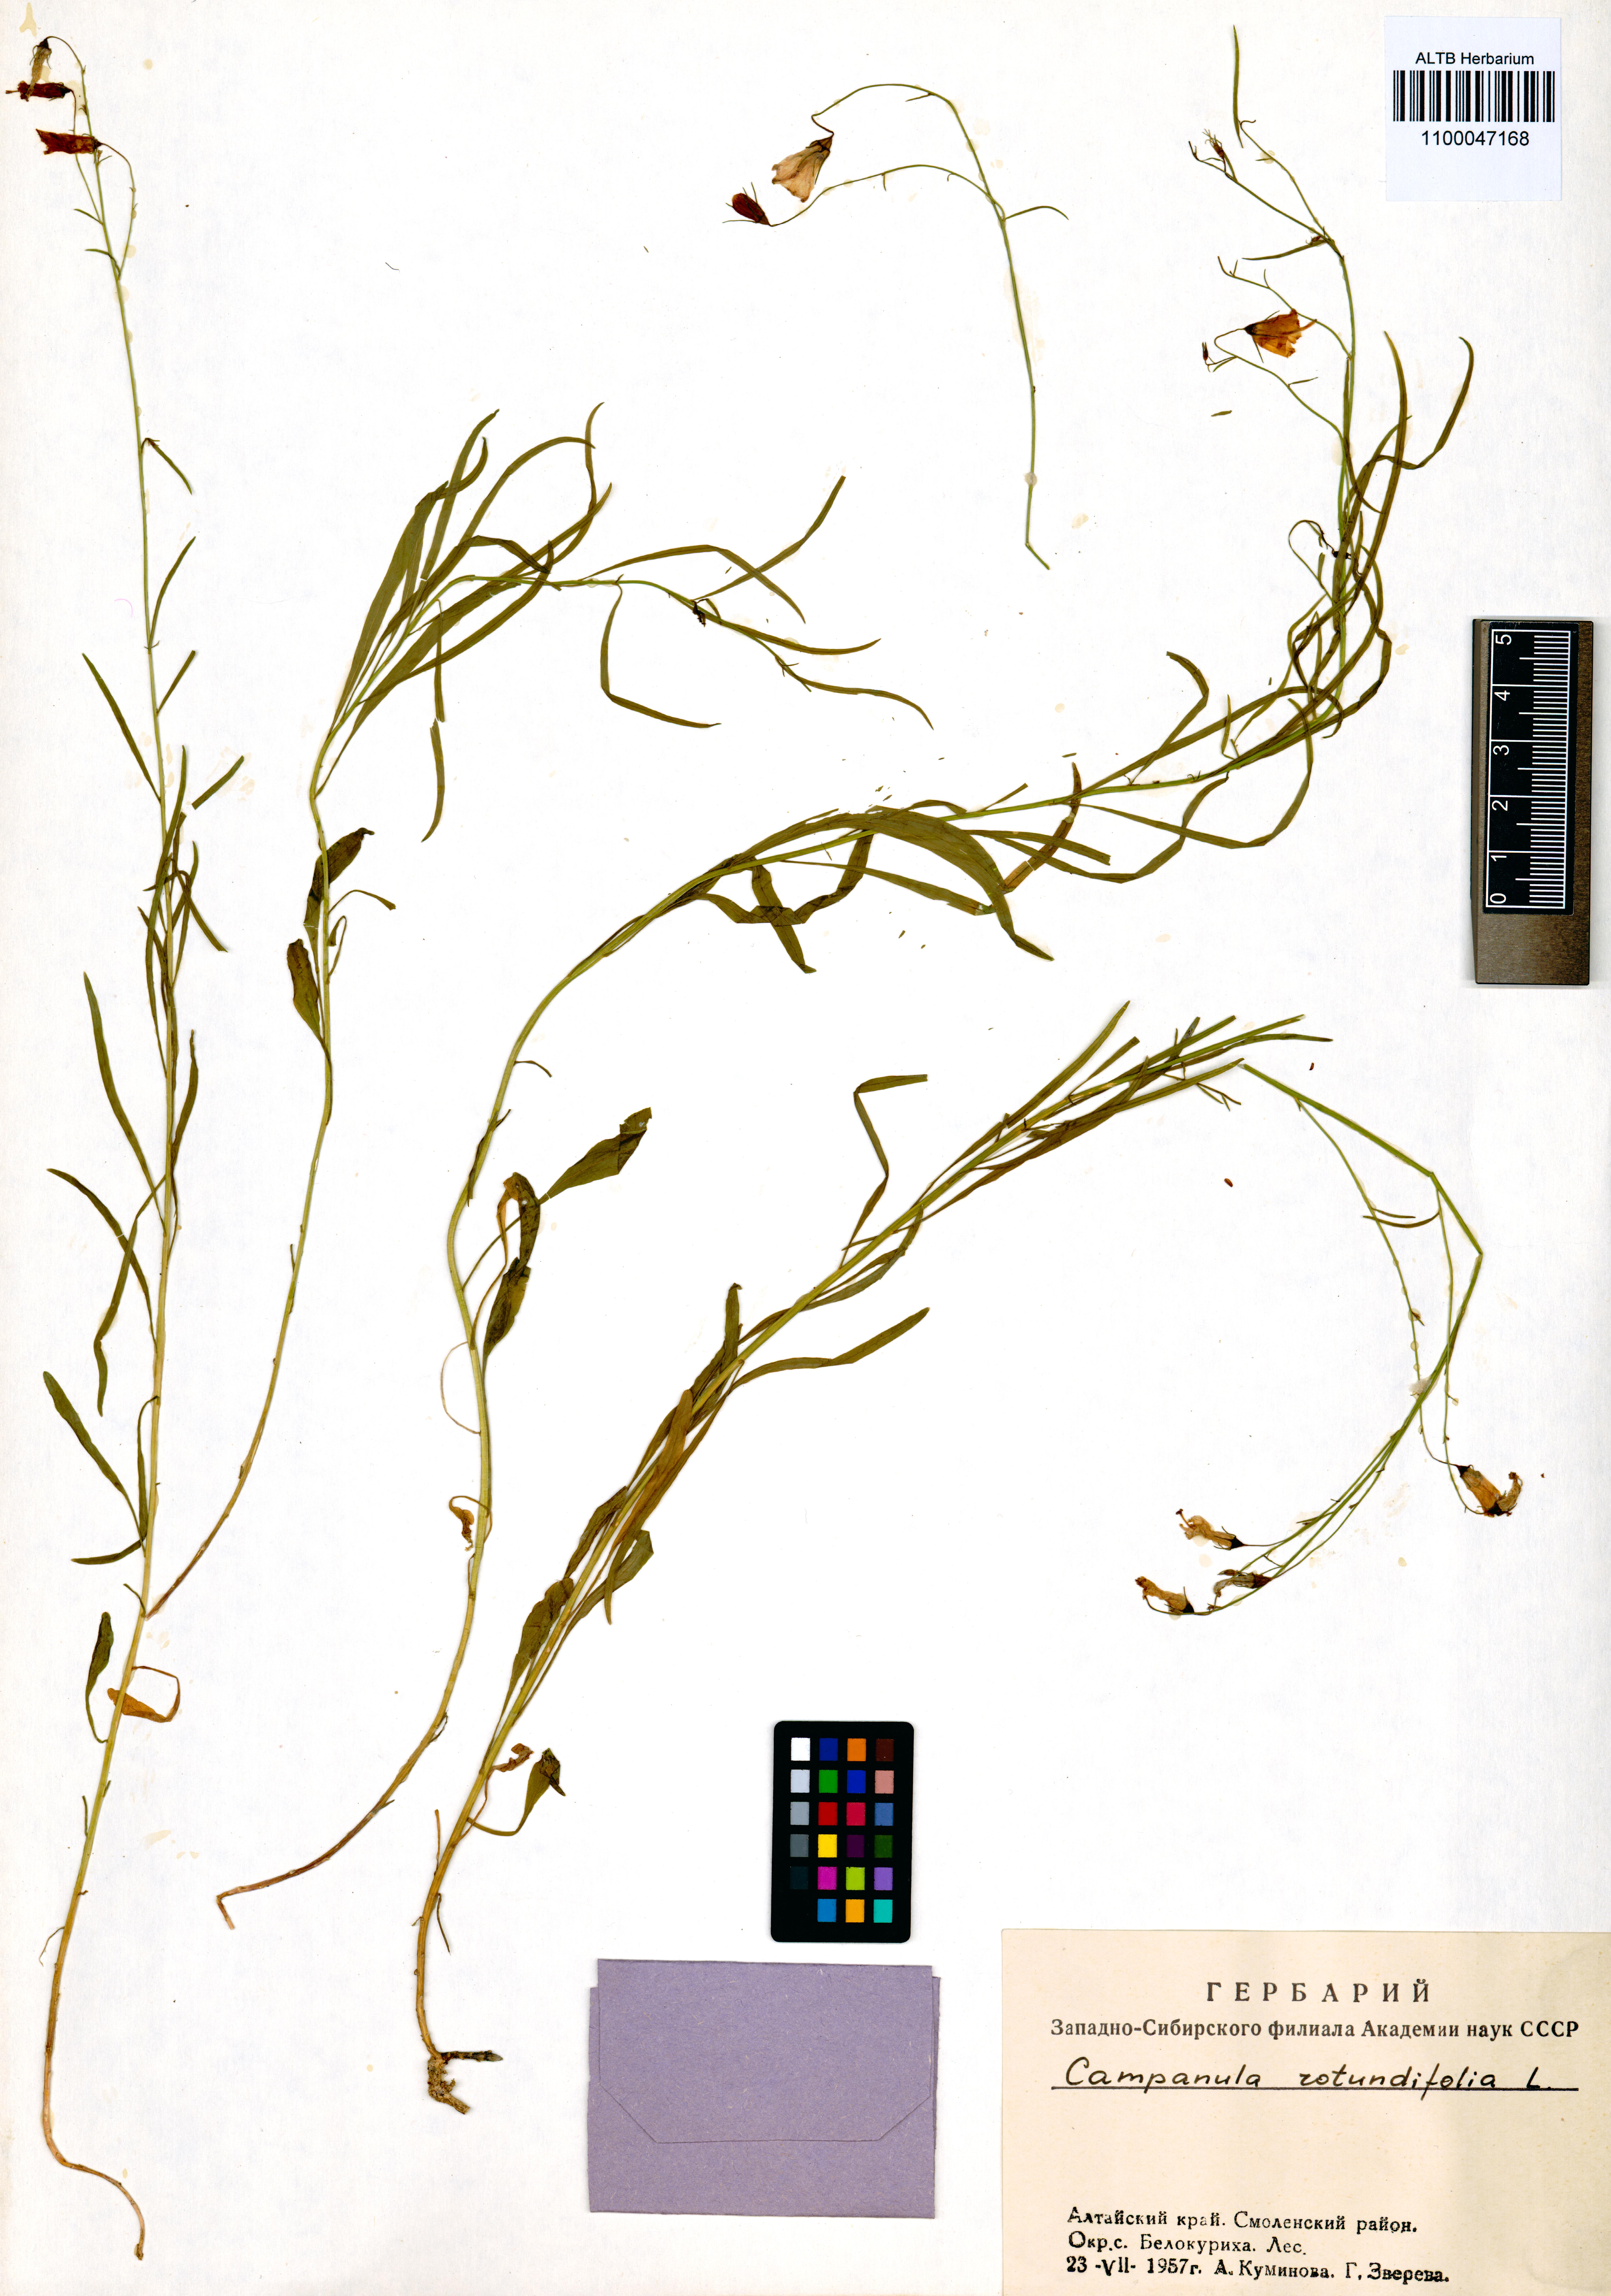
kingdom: Plantae
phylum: Tracheophyta
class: Magnoliopsida
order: Asterales
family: Campanulaceae
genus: Campanula
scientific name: Campanula rotundifolia
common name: Harebell
